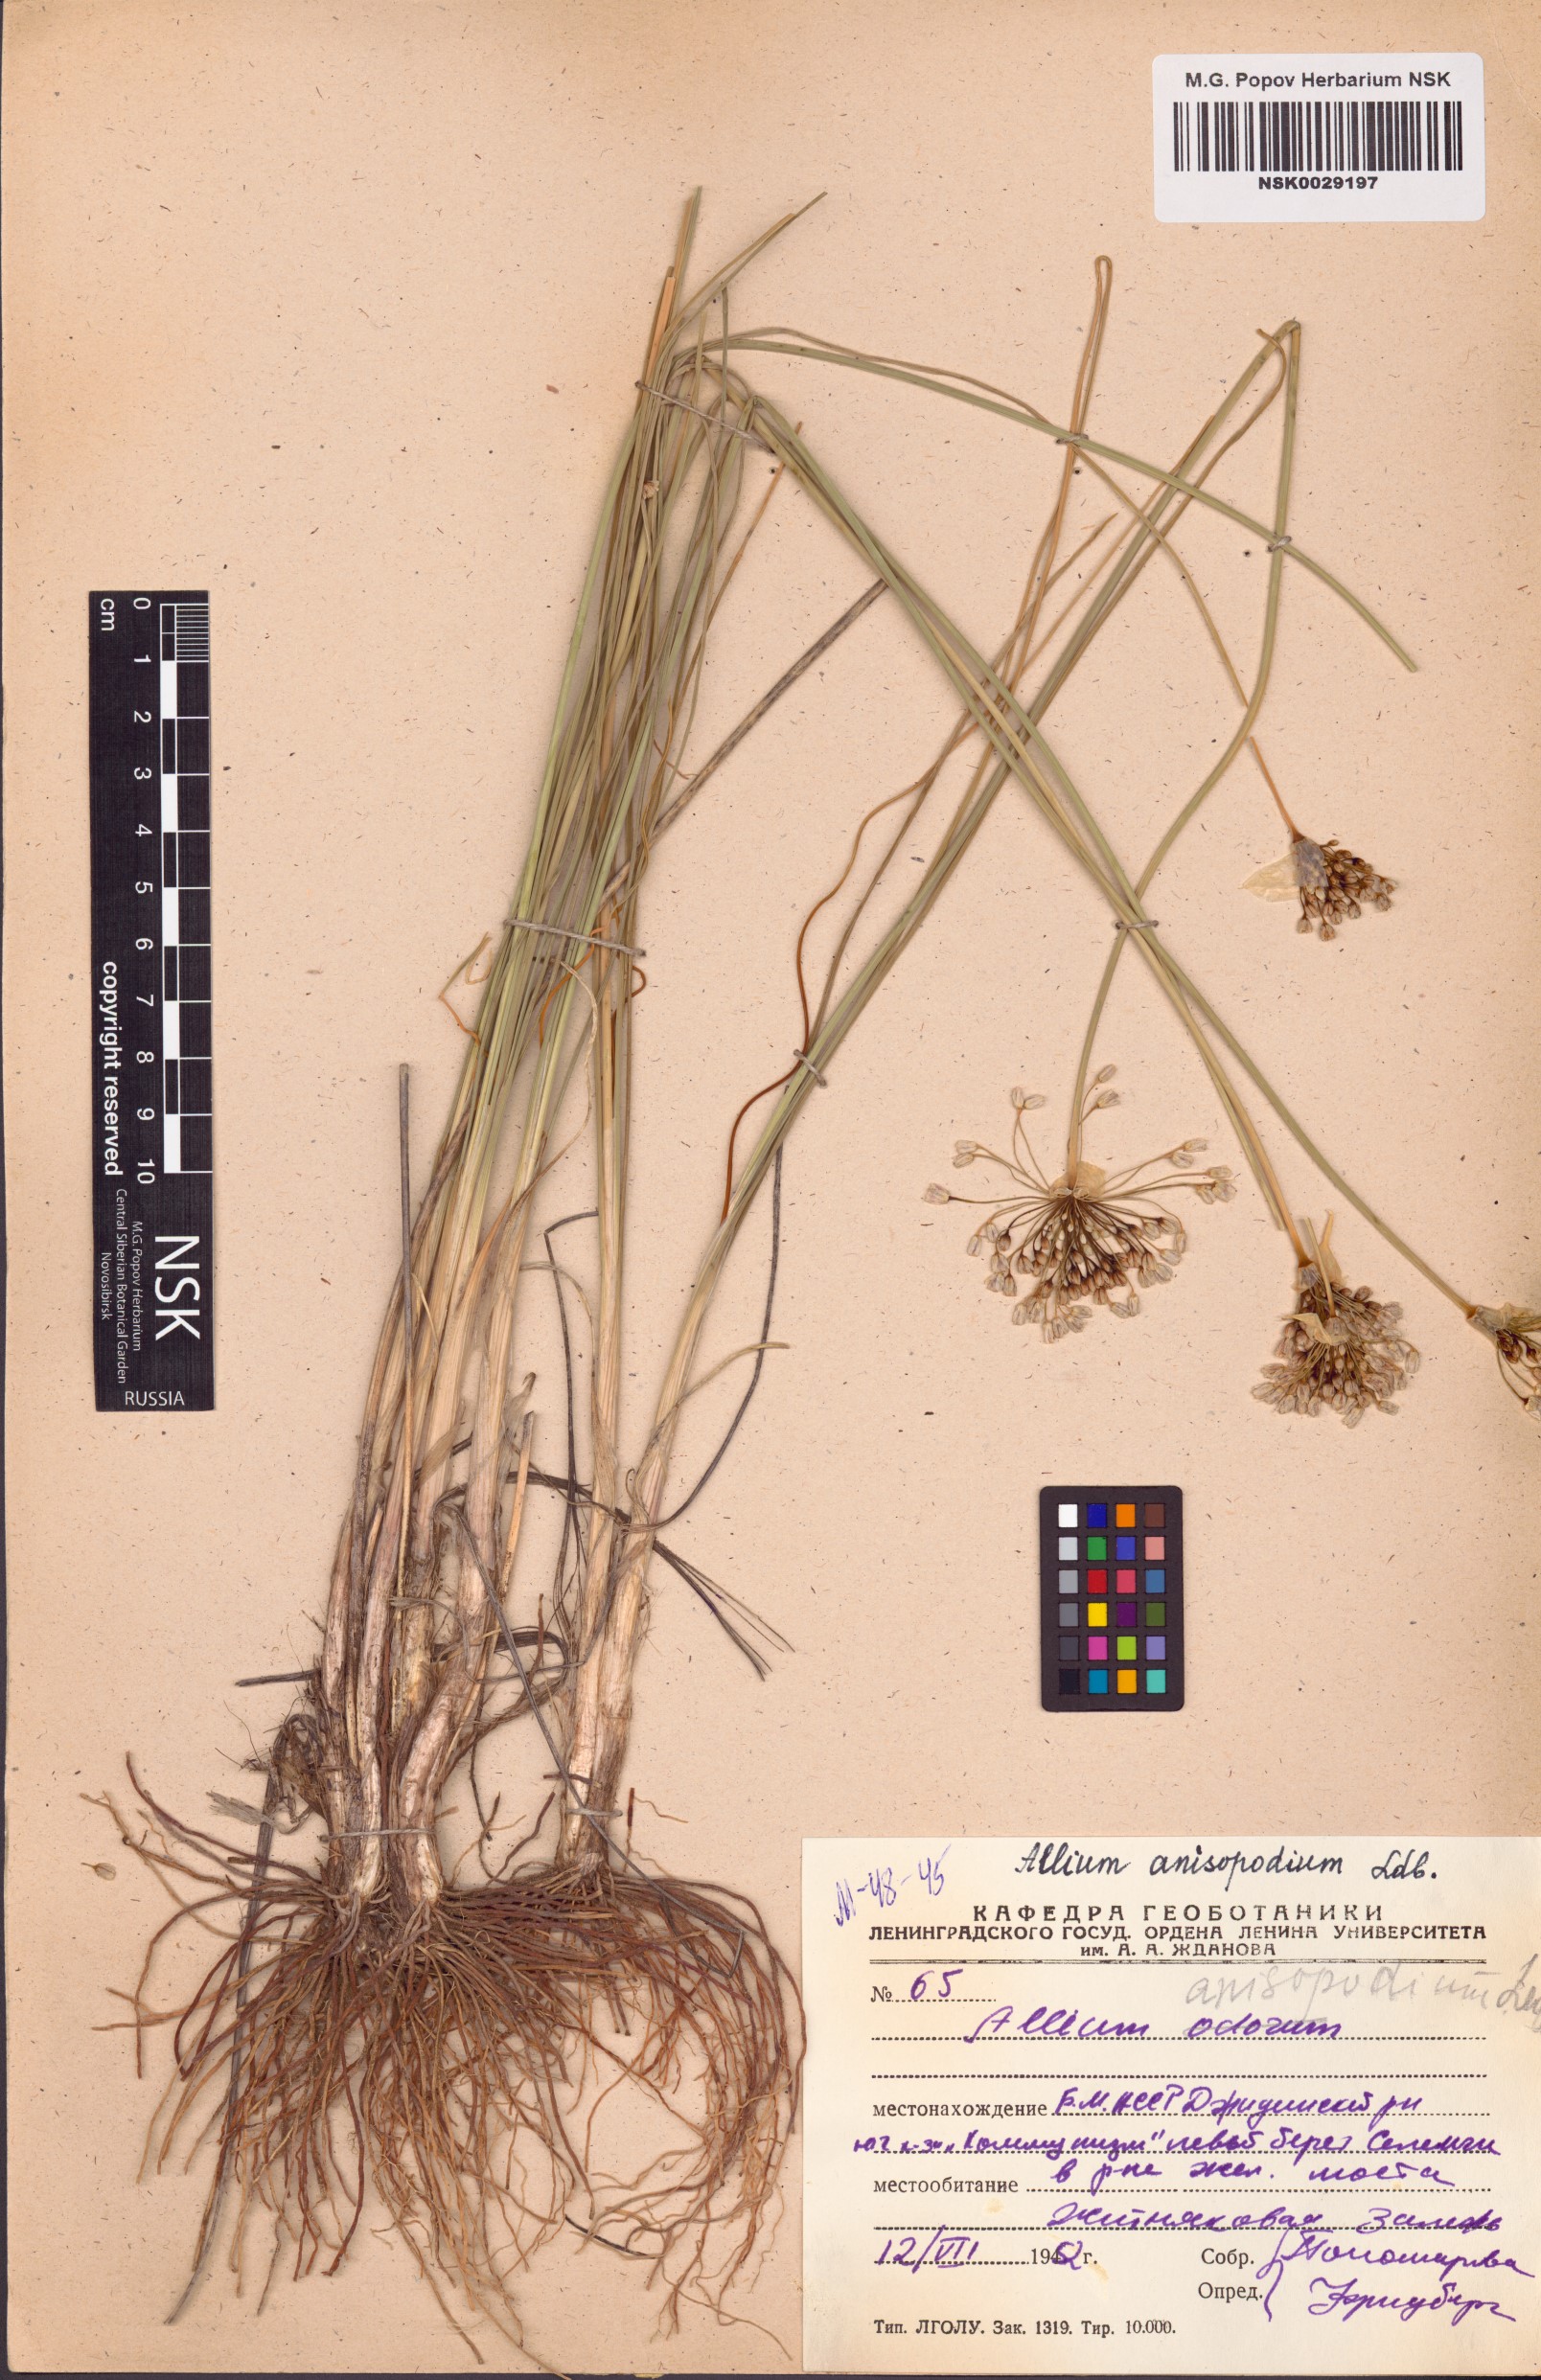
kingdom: Plantae
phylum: Tracheophyta
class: Liliopsida
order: Asparagales
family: Amaryllidaceae
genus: Allium
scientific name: Allium anisopodium
